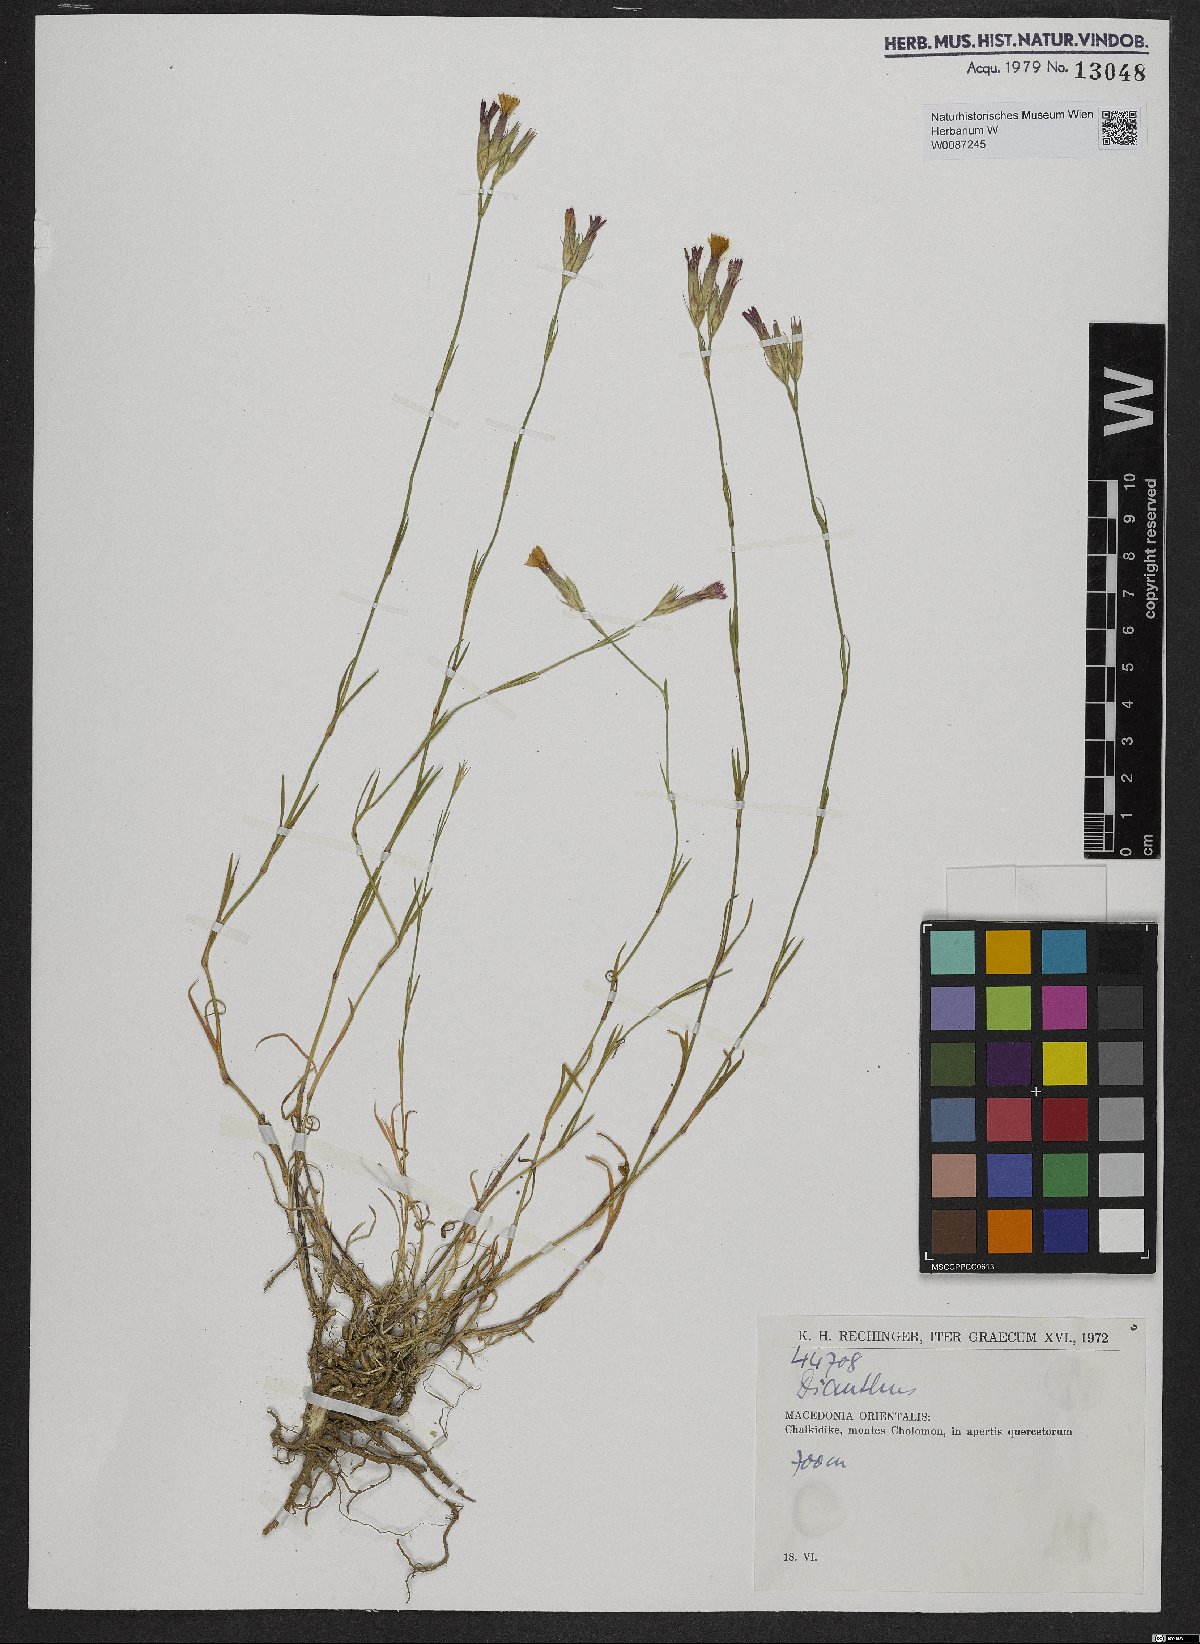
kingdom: Plantae
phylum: Tracheophyta
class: Magnoliopsida
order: Caryophyllales
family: Caryophyllaceae
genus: Dianthus
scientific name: Dianthus
